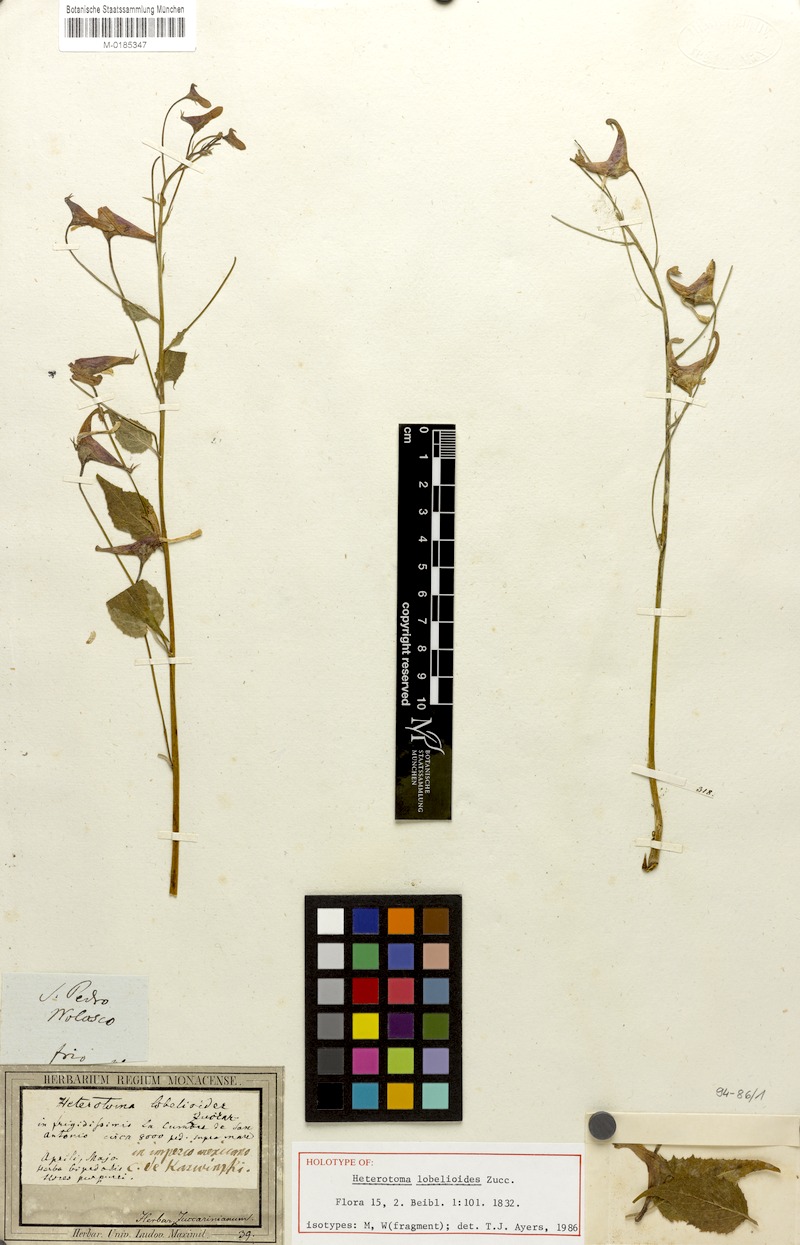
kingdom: Plantae
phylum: Tracheophyta
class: Magnoliopsida
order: Asterales
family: Campanulaceae
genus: Heterotoma
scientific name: Heterotoma lobelioides
